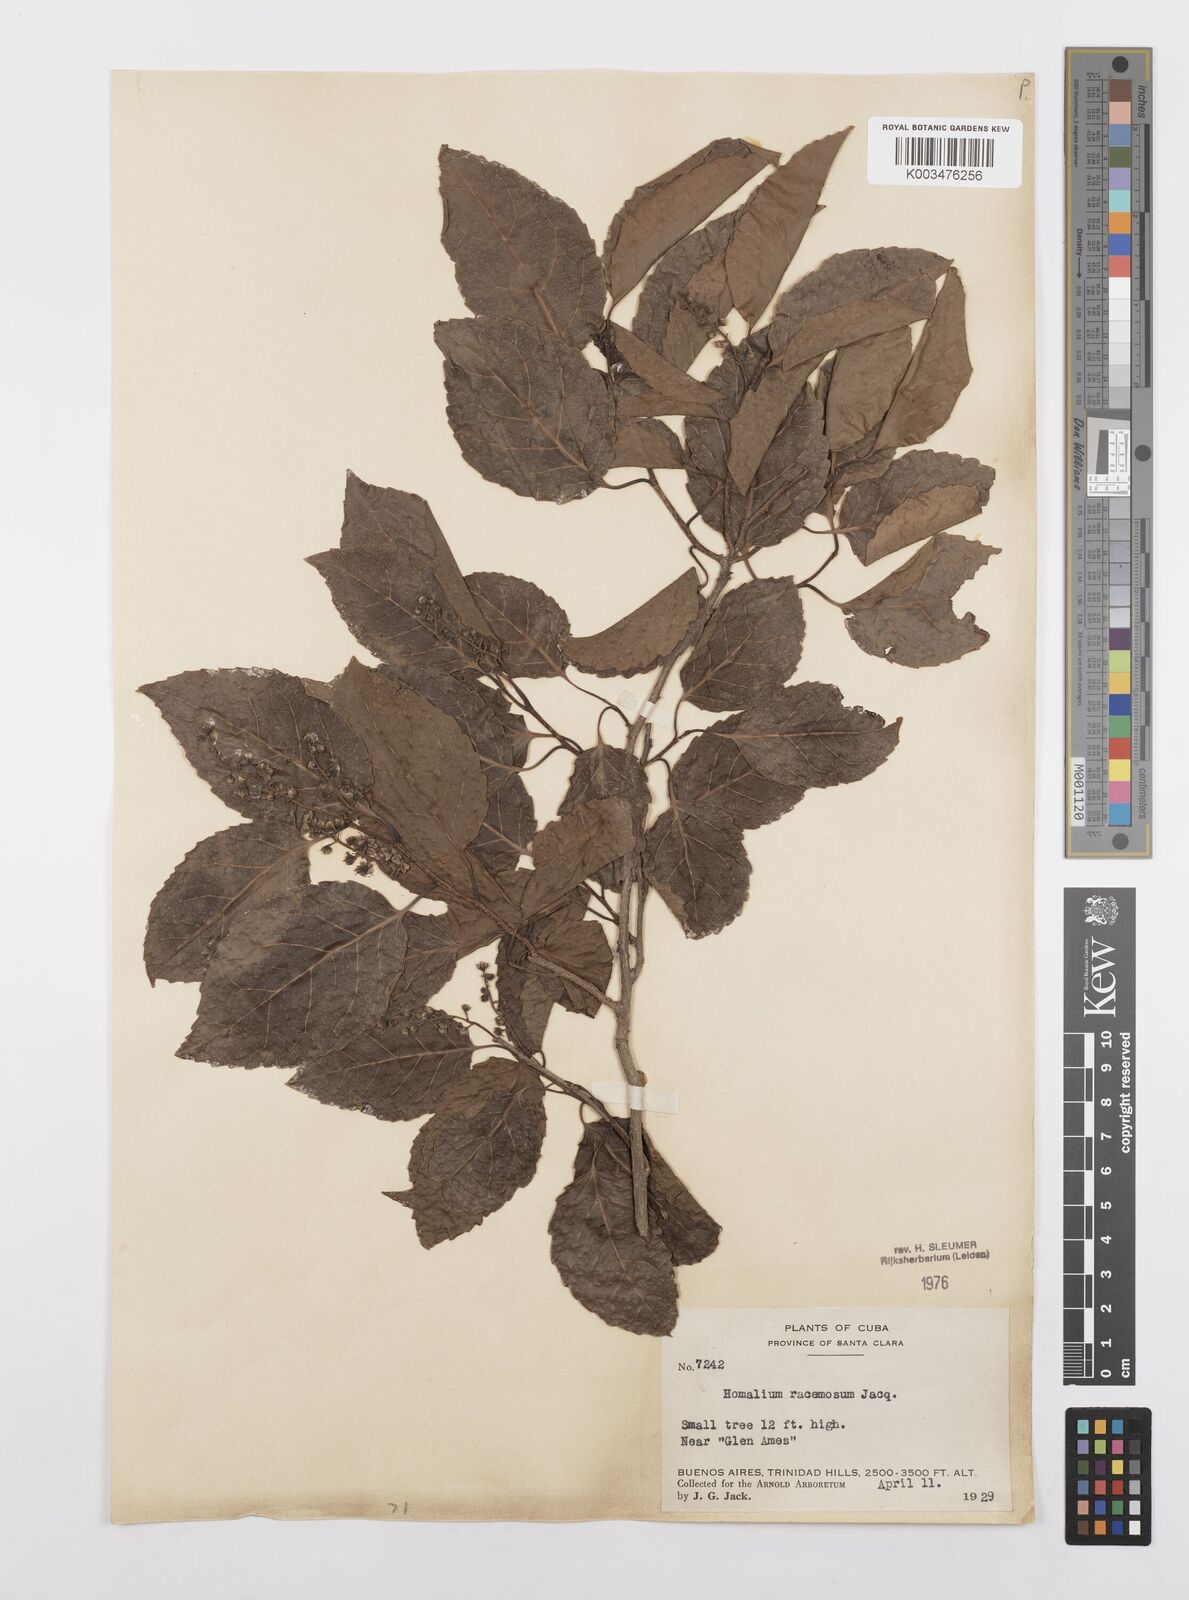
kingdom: Plantae
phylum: Tracheophyta
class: Magnoliopsida
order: Malpighiales
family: Salicaceae
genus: Homalium
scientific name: Homalium racemosum
